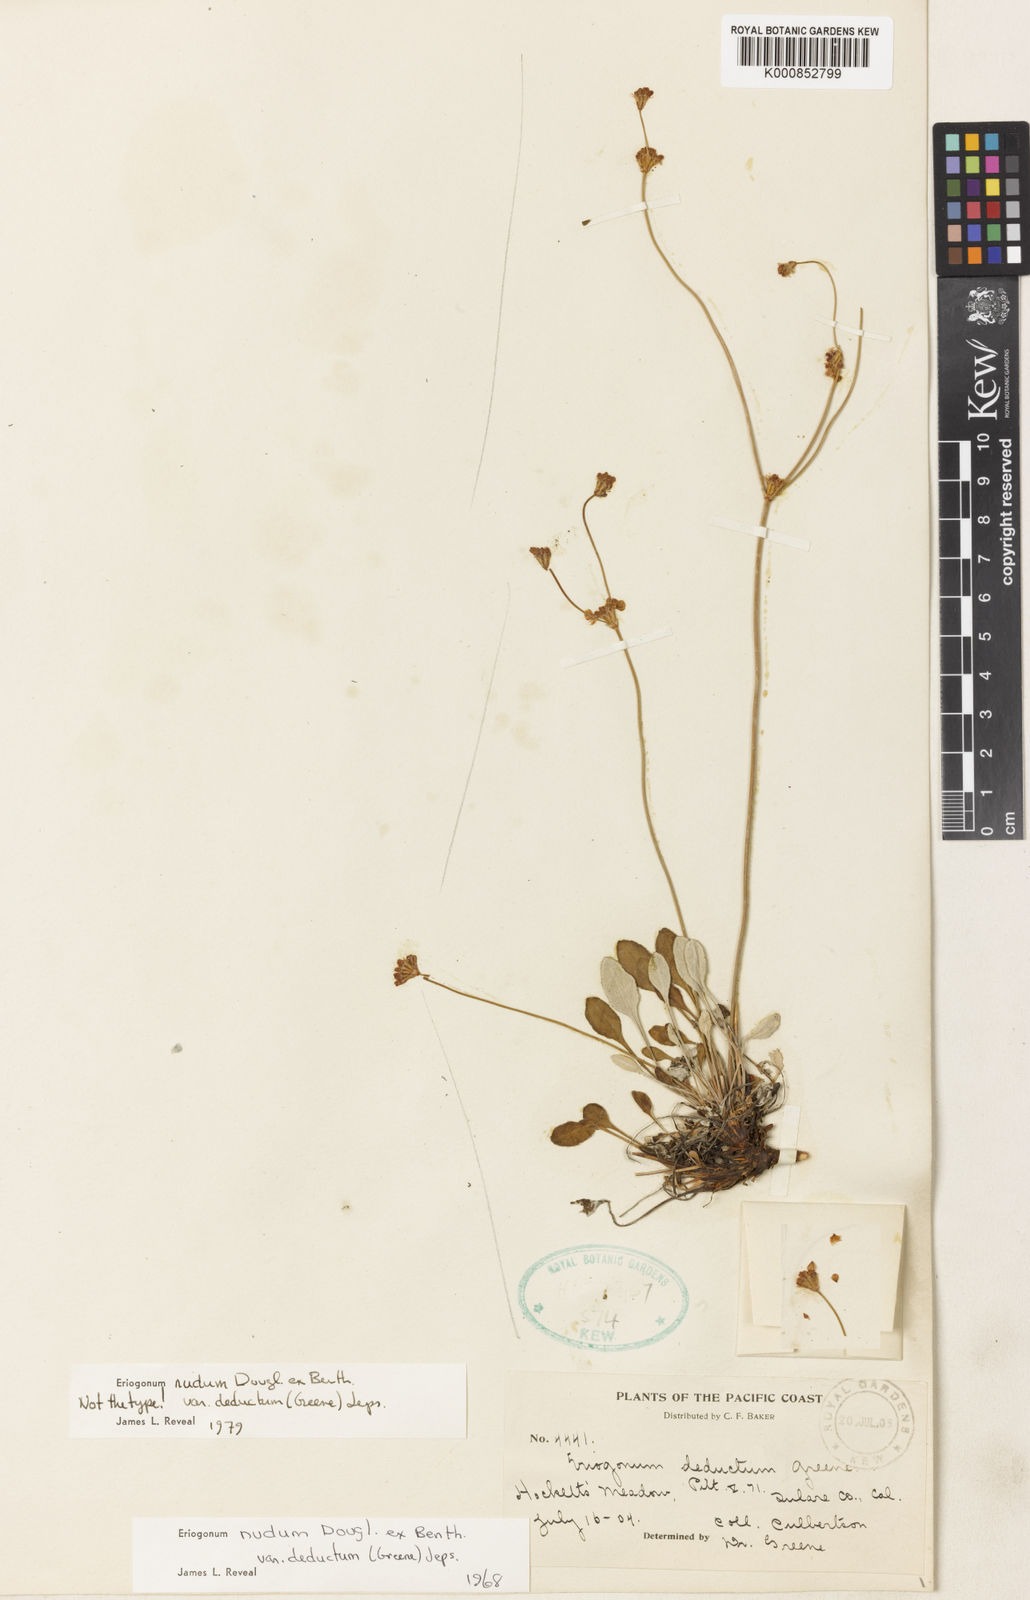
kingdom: Plantae
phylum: Tracheophyta
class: Magnoliopsida
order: Caryophyllales
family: Polygonaceae
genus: Eriogonum
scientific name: Eriogonum nudum
